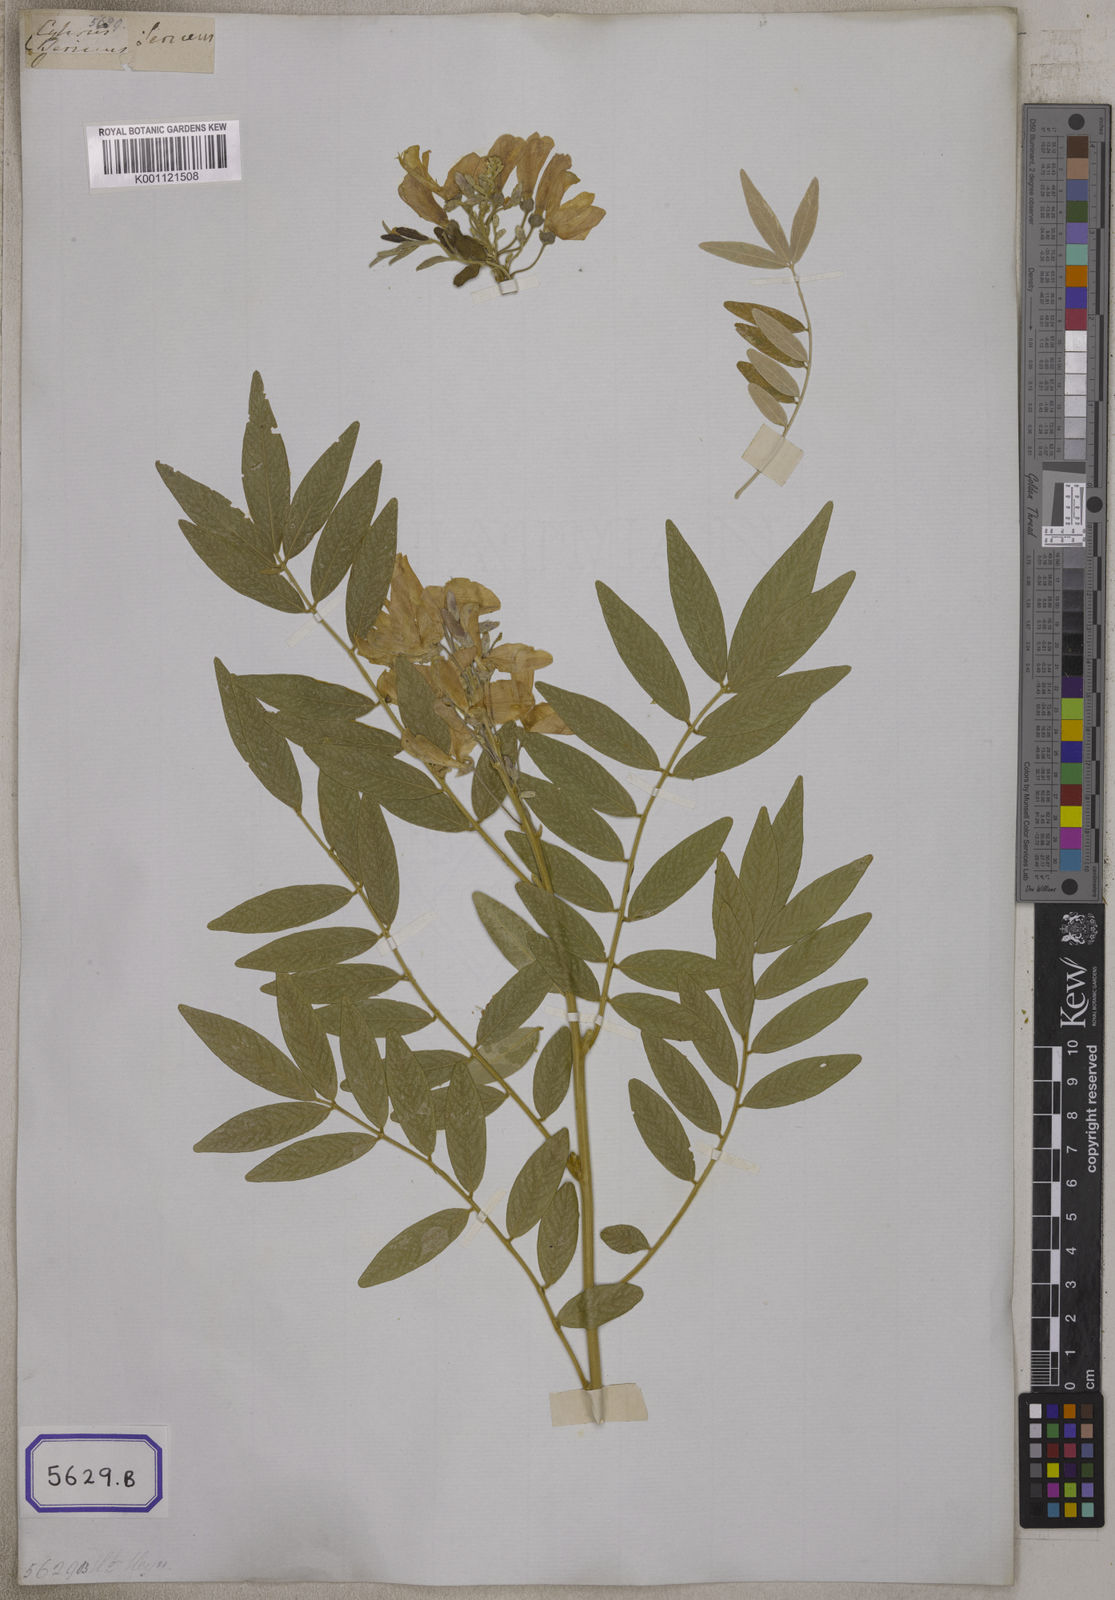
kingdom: Plantae
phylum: Tracheophyta
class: Magnoliopsida
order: Fabales
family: Fabaceae
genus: Mundulea
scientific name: Mundulea sericea
